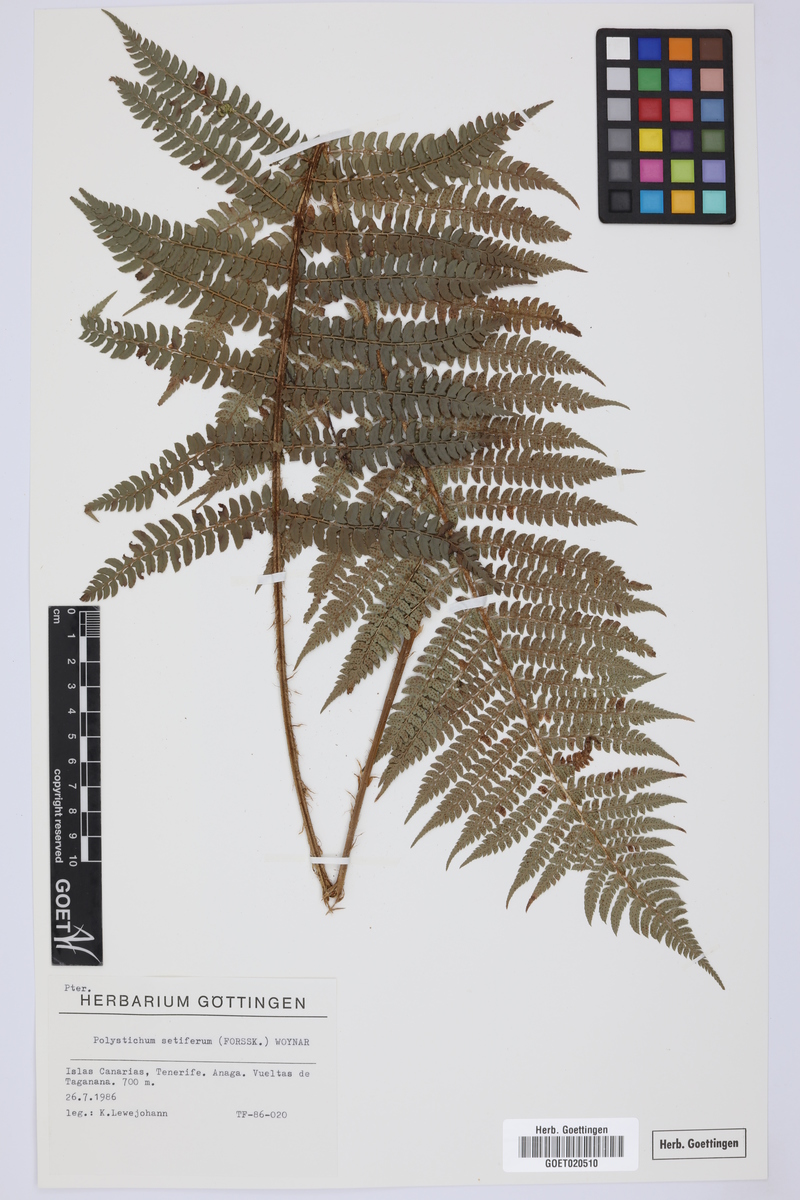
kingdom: Plantae
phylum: Tracheophyta
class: Polypodiopsida
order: Polypodiales
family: Dryopteridaceae
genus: Polystichum
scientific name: Polystichum setiferum
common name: Soft shield-fern
